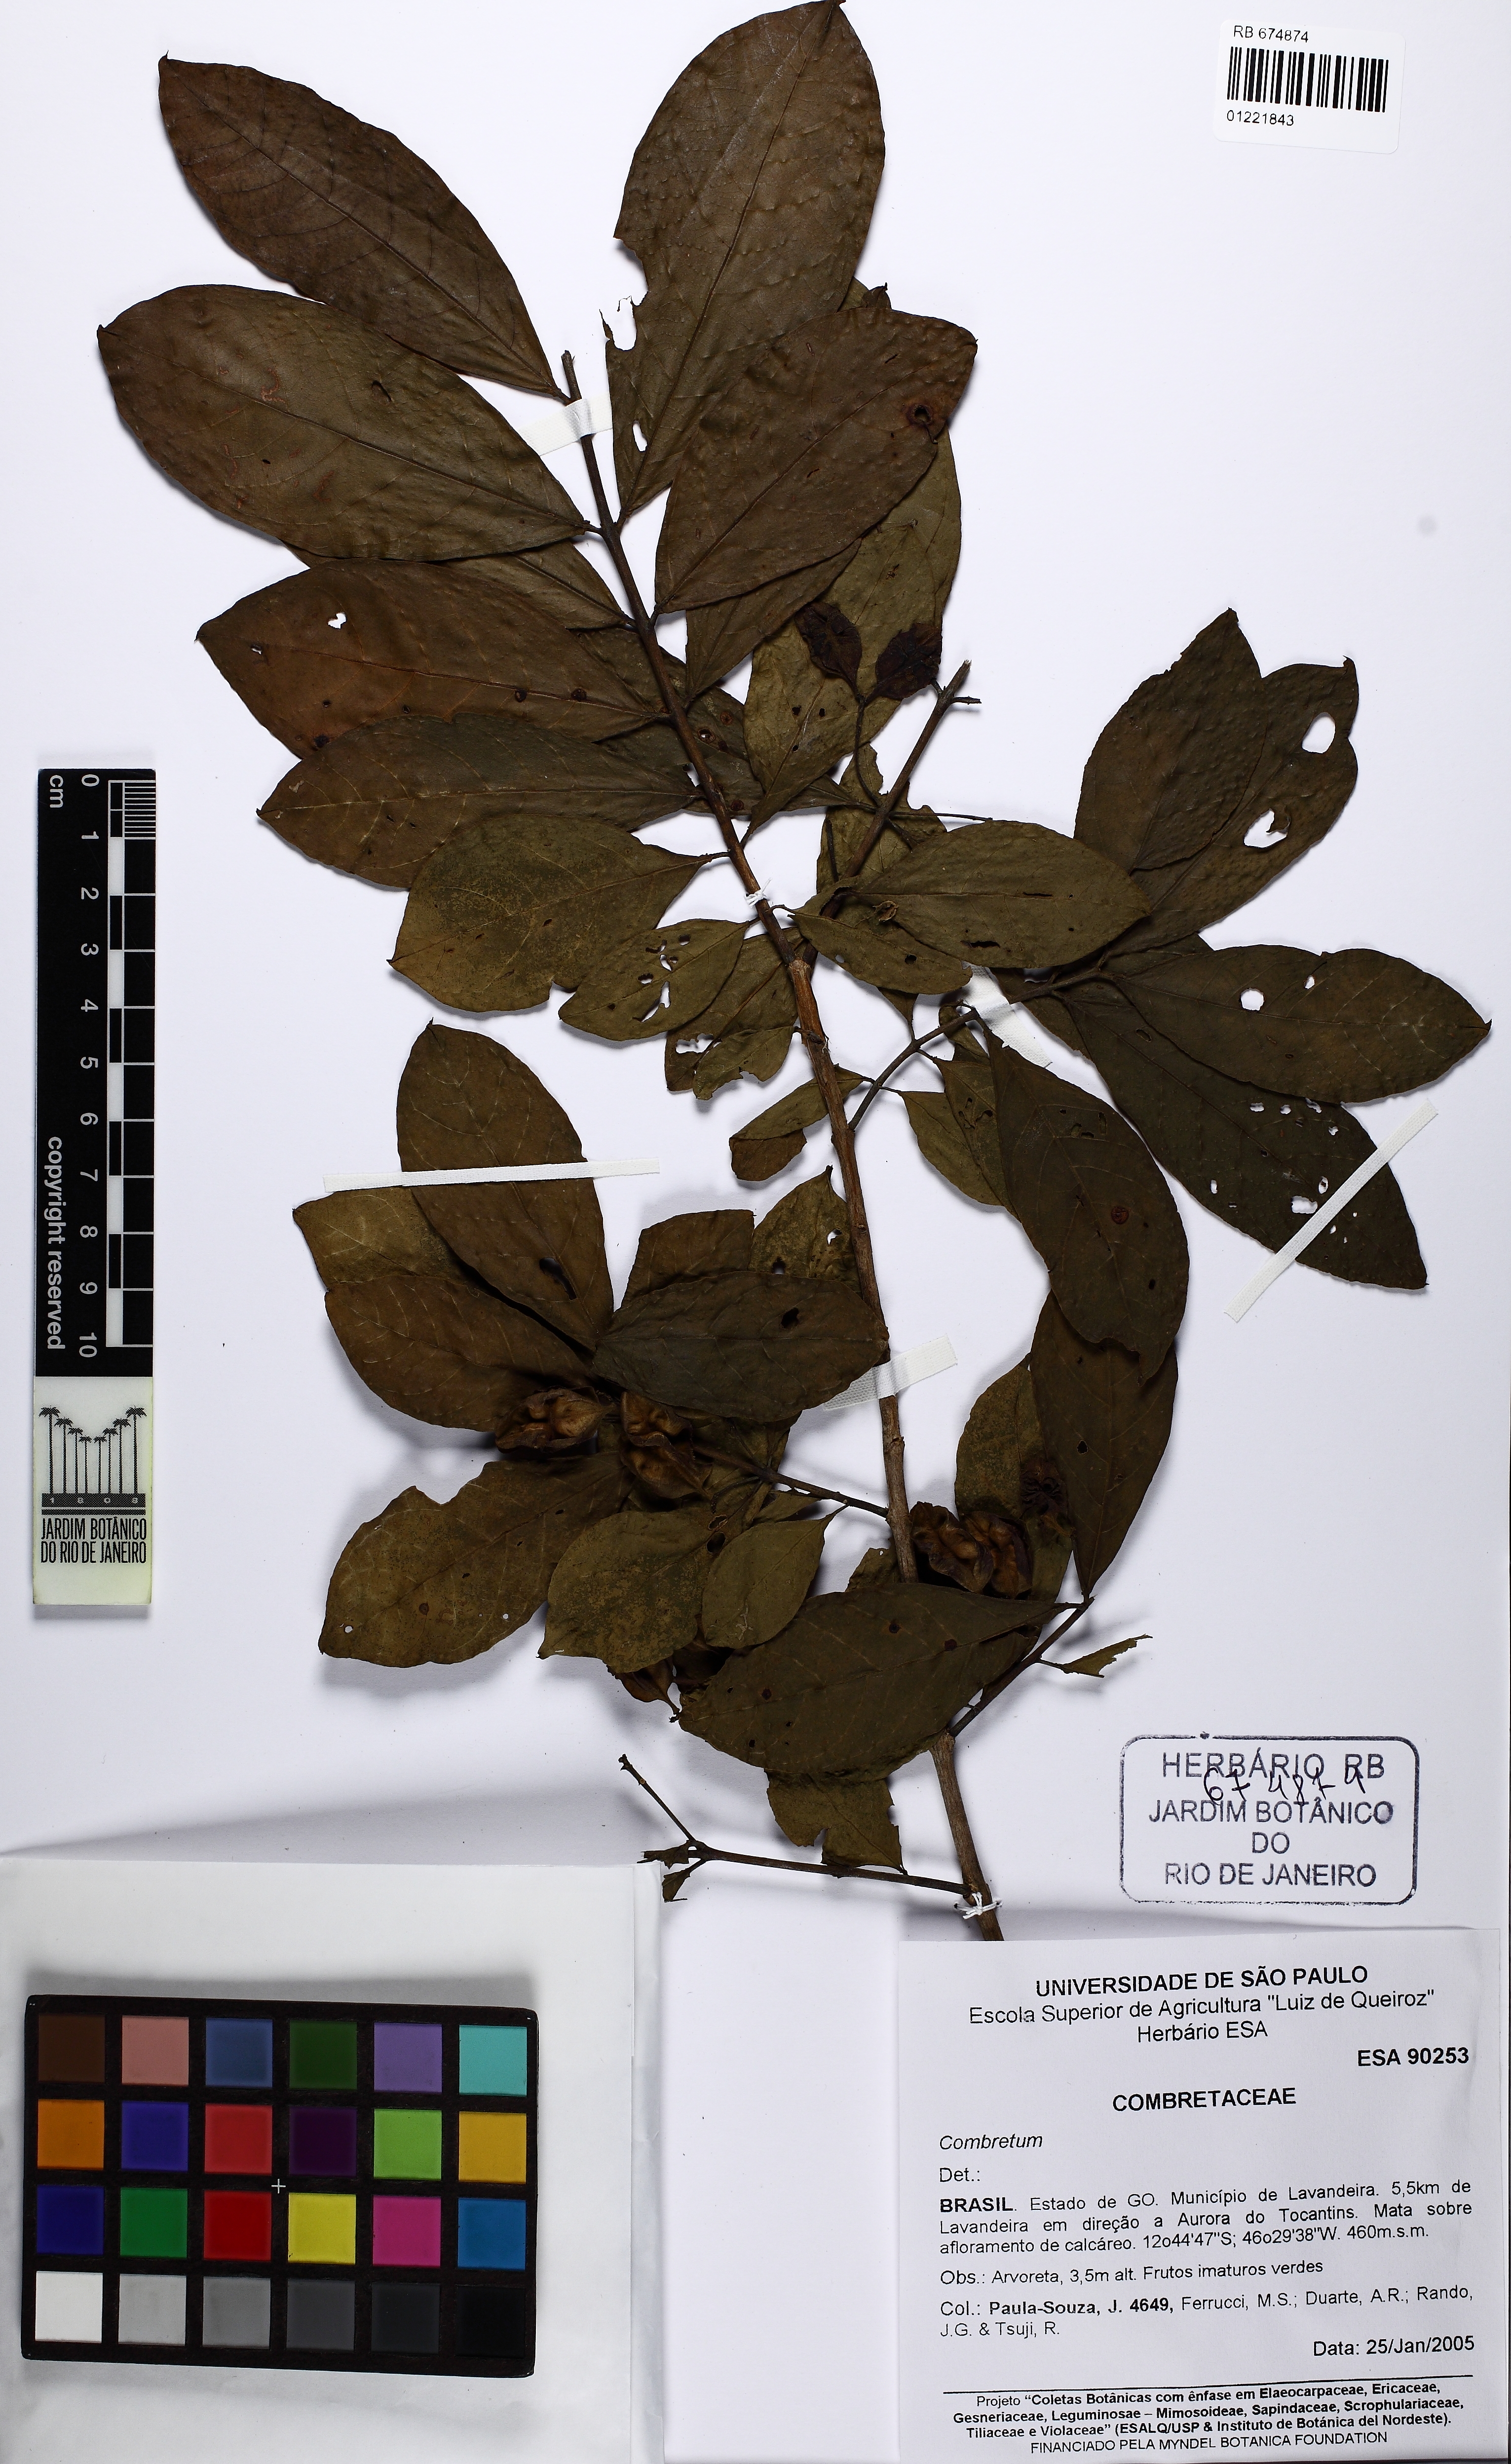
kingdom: Plantae
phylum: Tracheophyta
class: Magnoliopsida
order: Myrtales
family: Combretaceae
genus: Combretum
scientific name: Combretum
